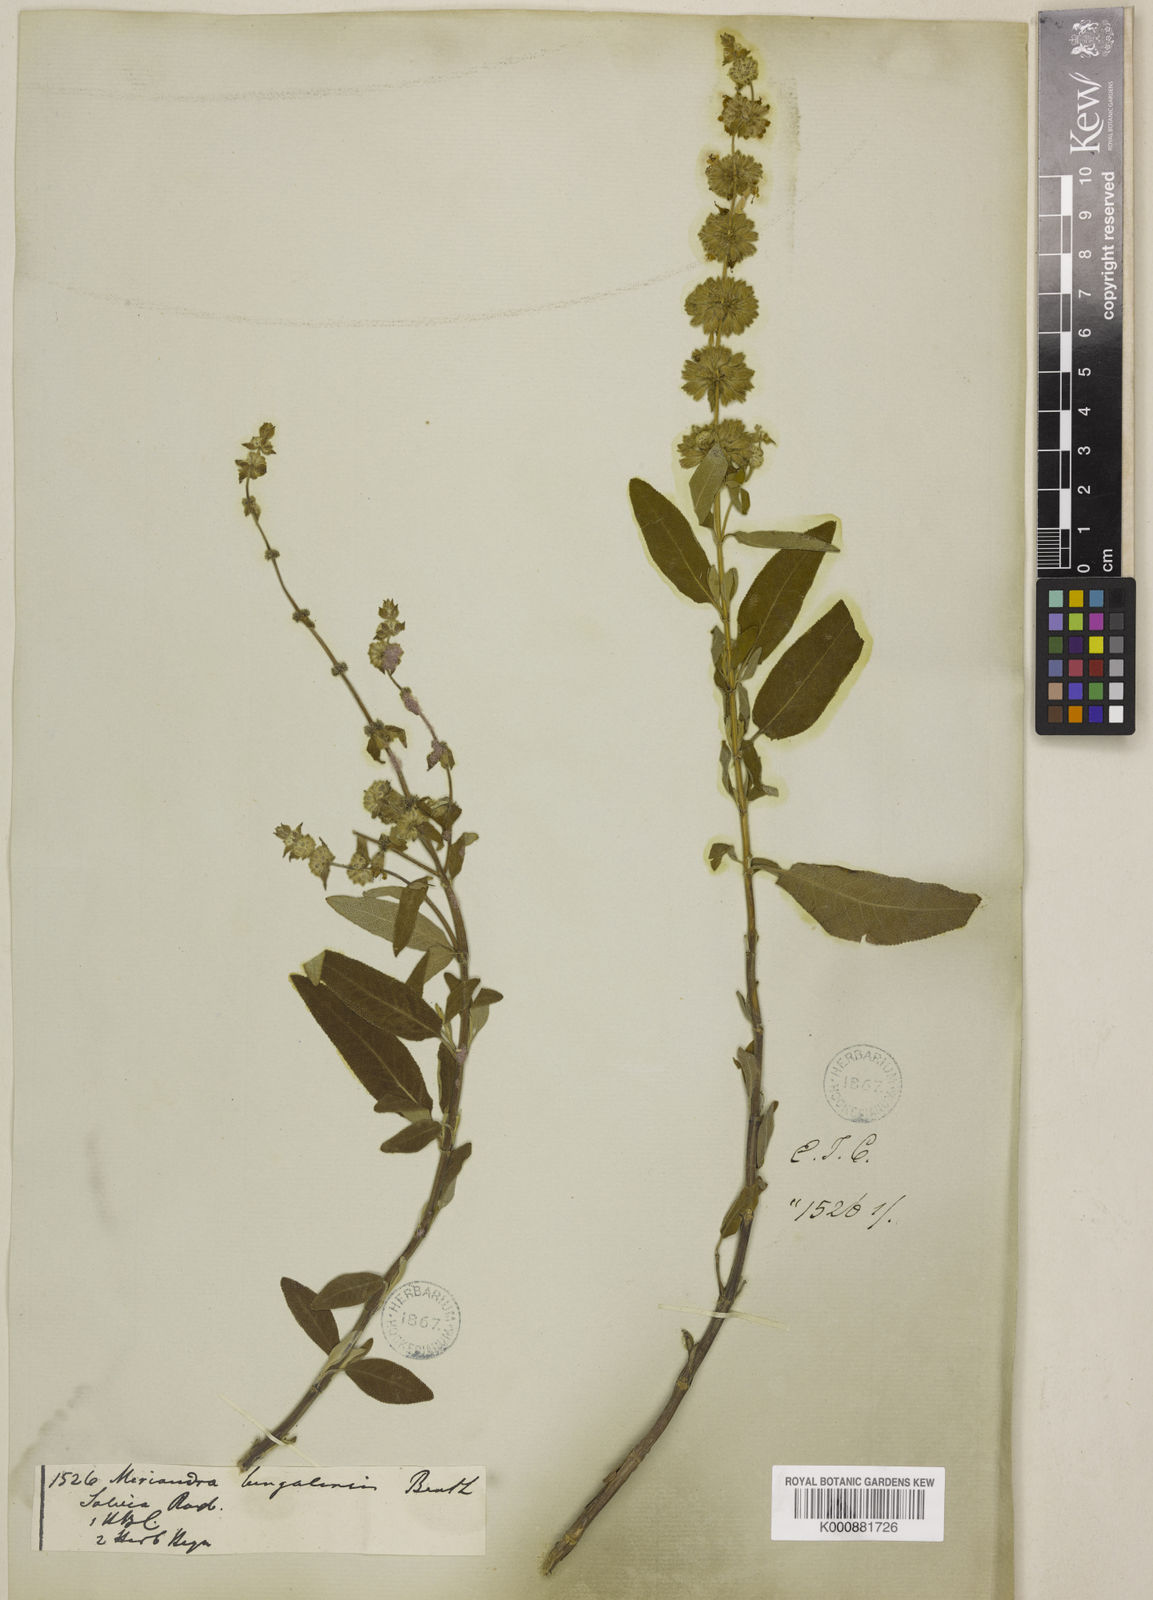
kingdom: Plantae
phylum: Tracheophyta
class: Magnoliopsida
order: Lamiales
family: Lamiaceae
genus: Salvia
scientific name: Salvia dianthera
